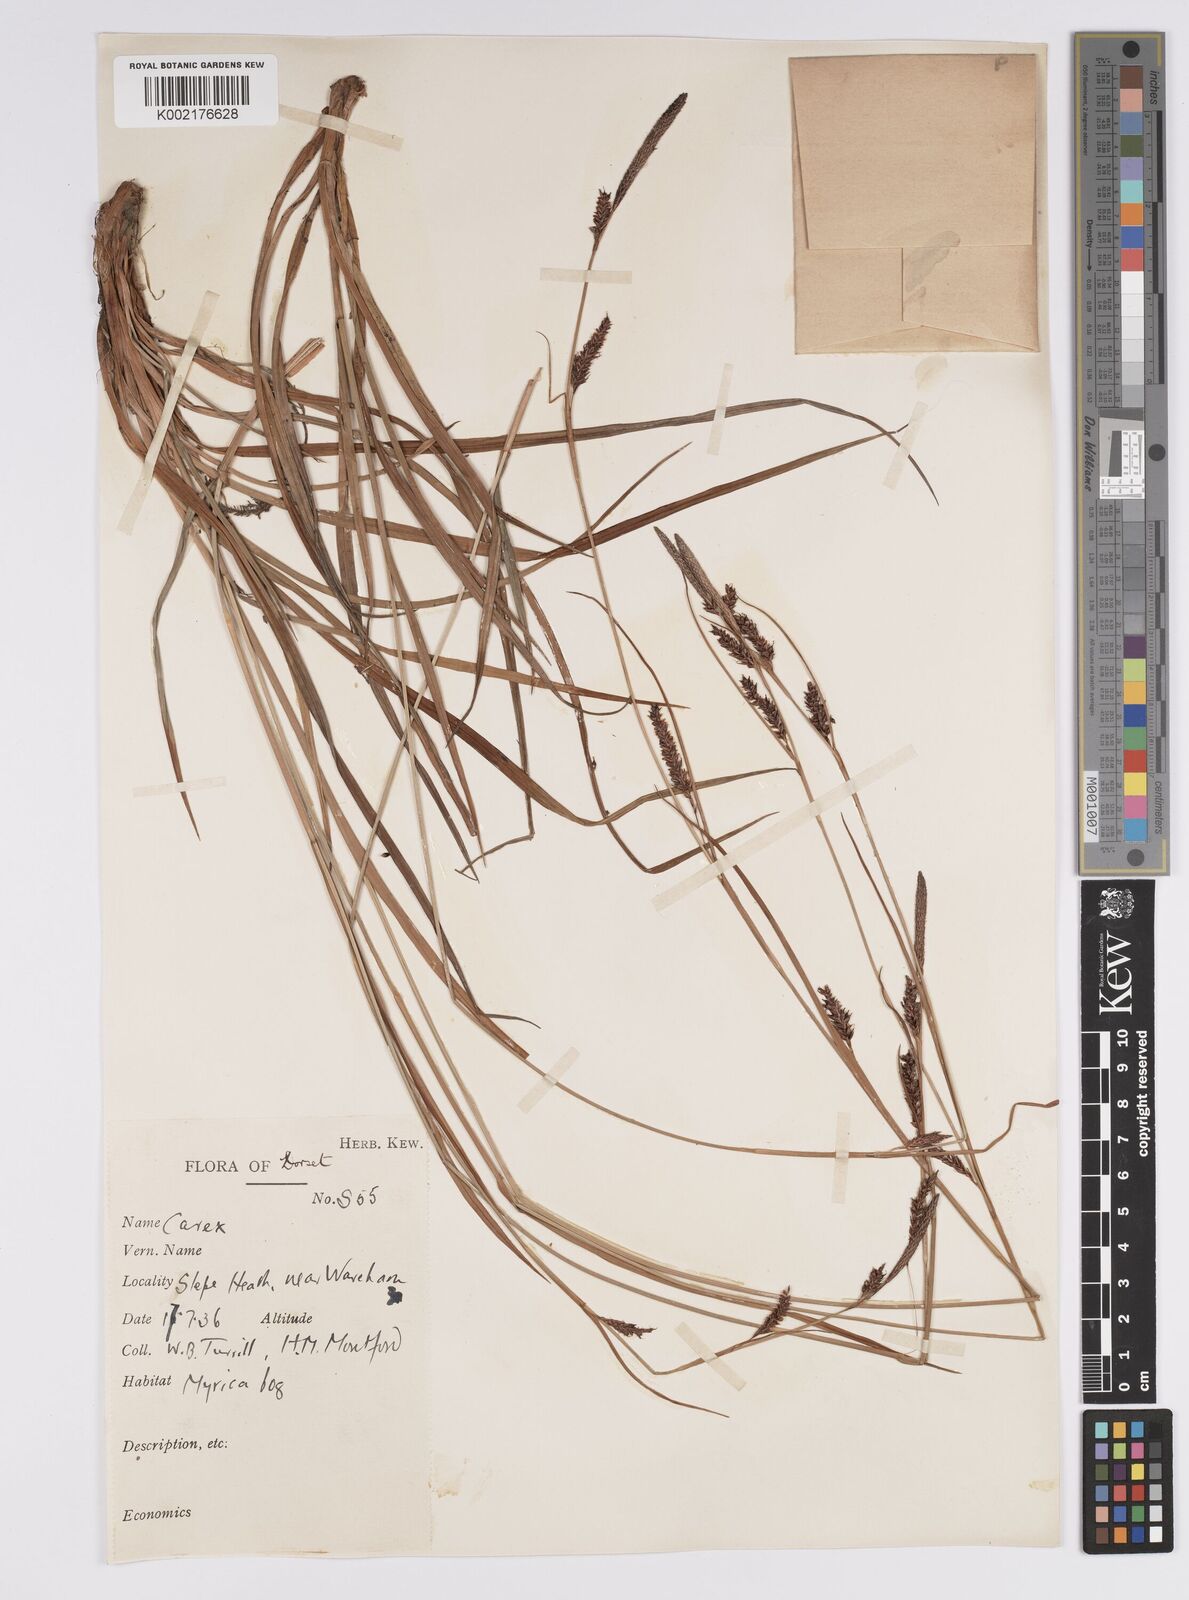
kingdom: Plantae
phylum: Tracheophyta
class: Liliopsida
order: Poales
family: Cyperaceae
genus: Carex
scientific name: Carex binervis
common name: Green-ribbed sedge
